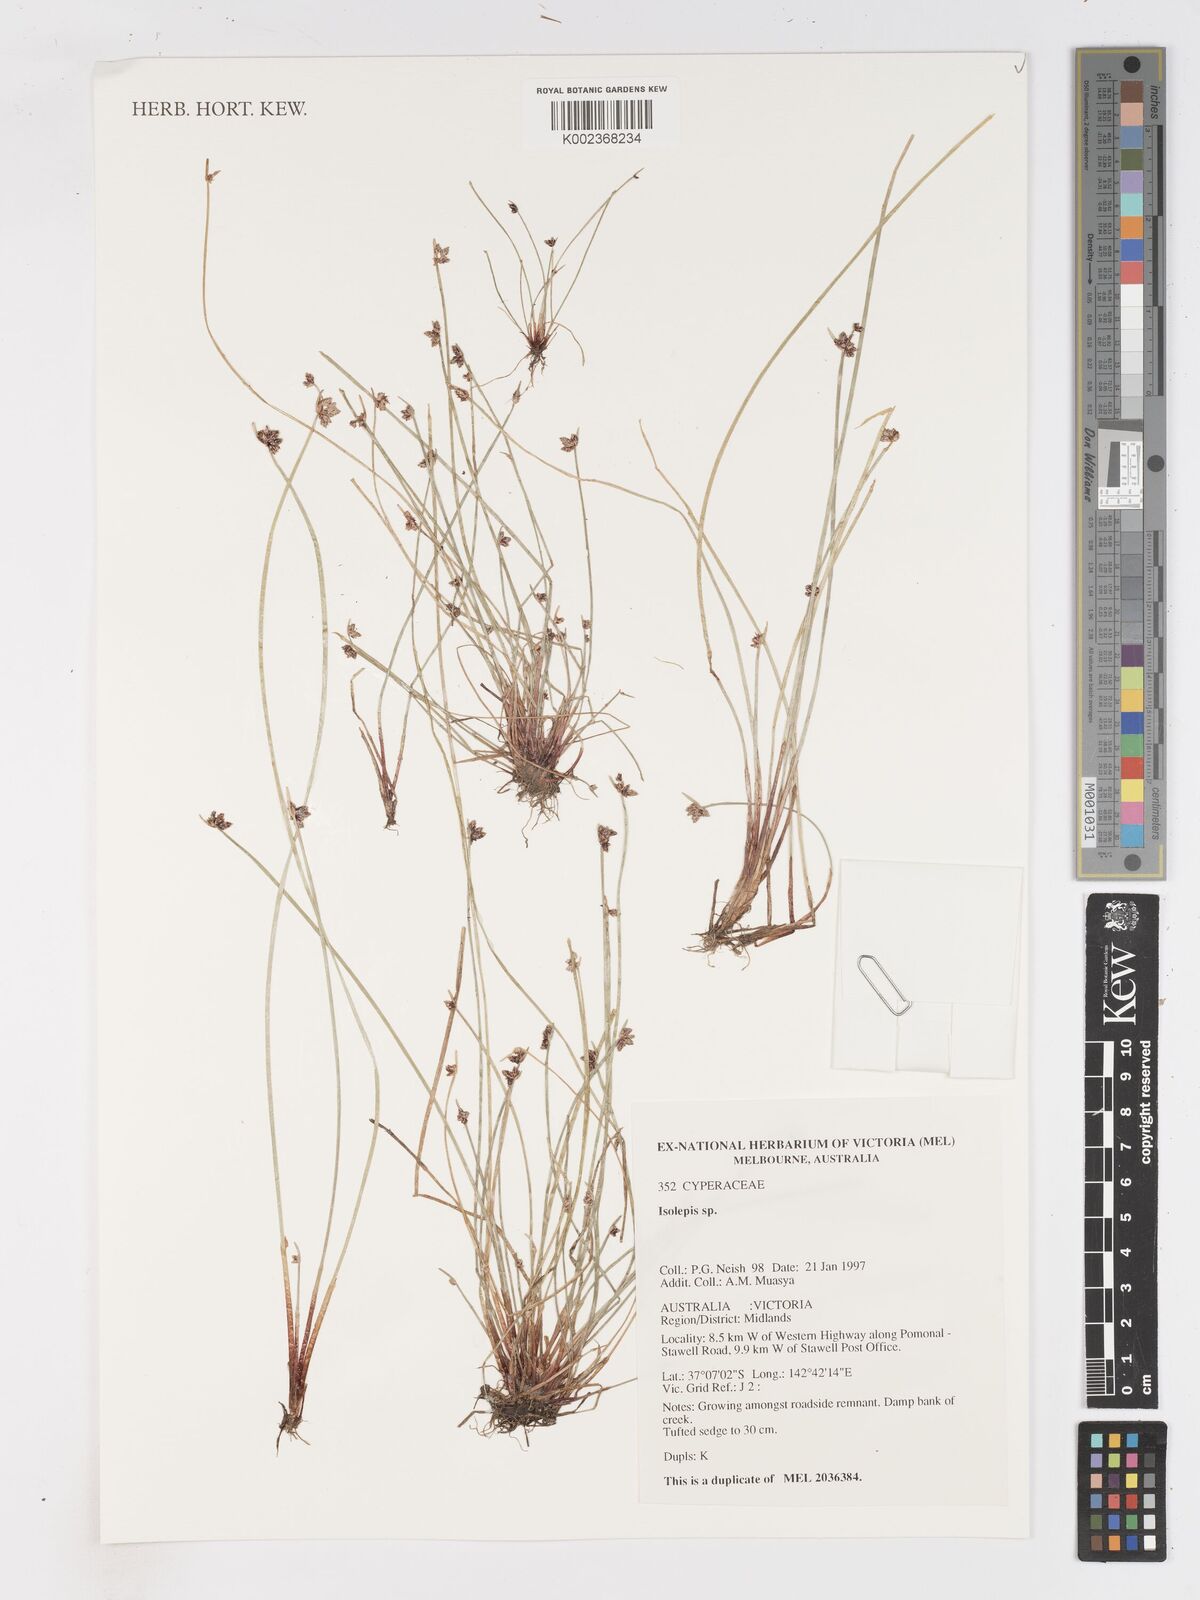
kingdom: Plantae
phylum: Tracheophyta
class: Liliopsida
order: Poales
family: Cyperaceae
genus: Isolepis
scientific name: Isolepis
